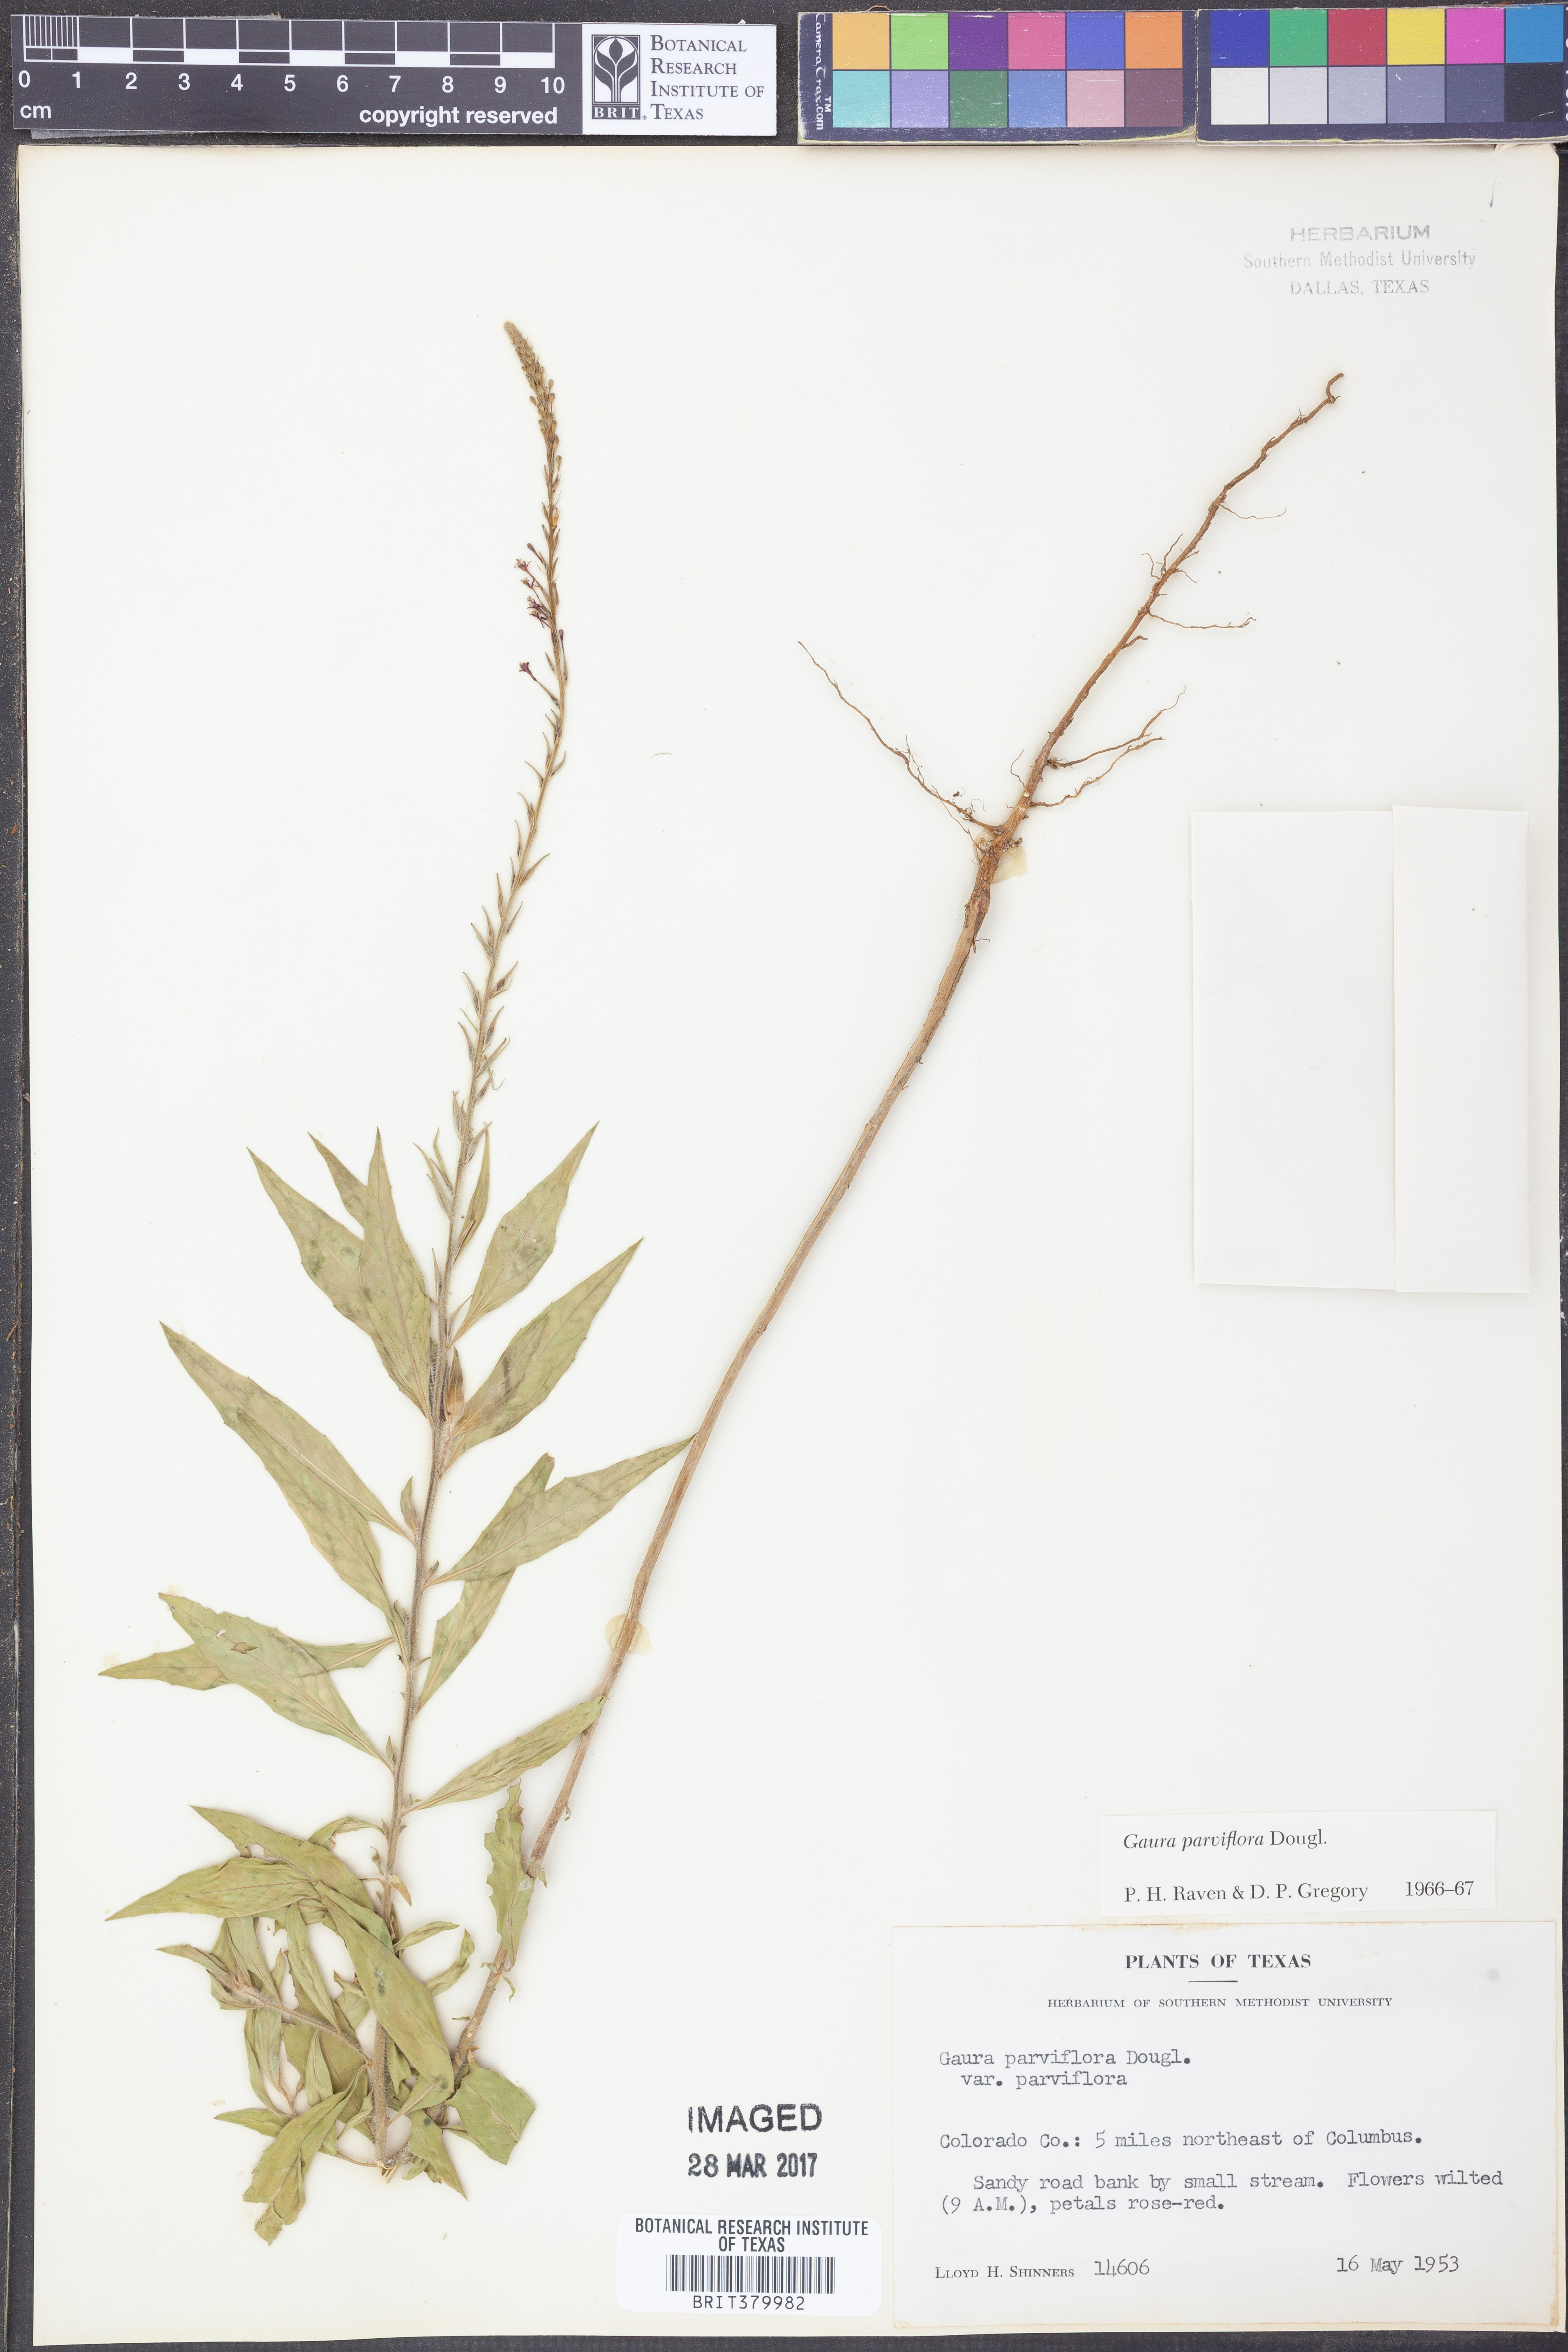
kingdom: Plantae
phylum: Tracheophyta
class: Magnoliopsida
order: Myrtales
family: Onagraceae
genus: Oenothera
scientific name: Oenothera curtiflora
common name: Velvetweed
